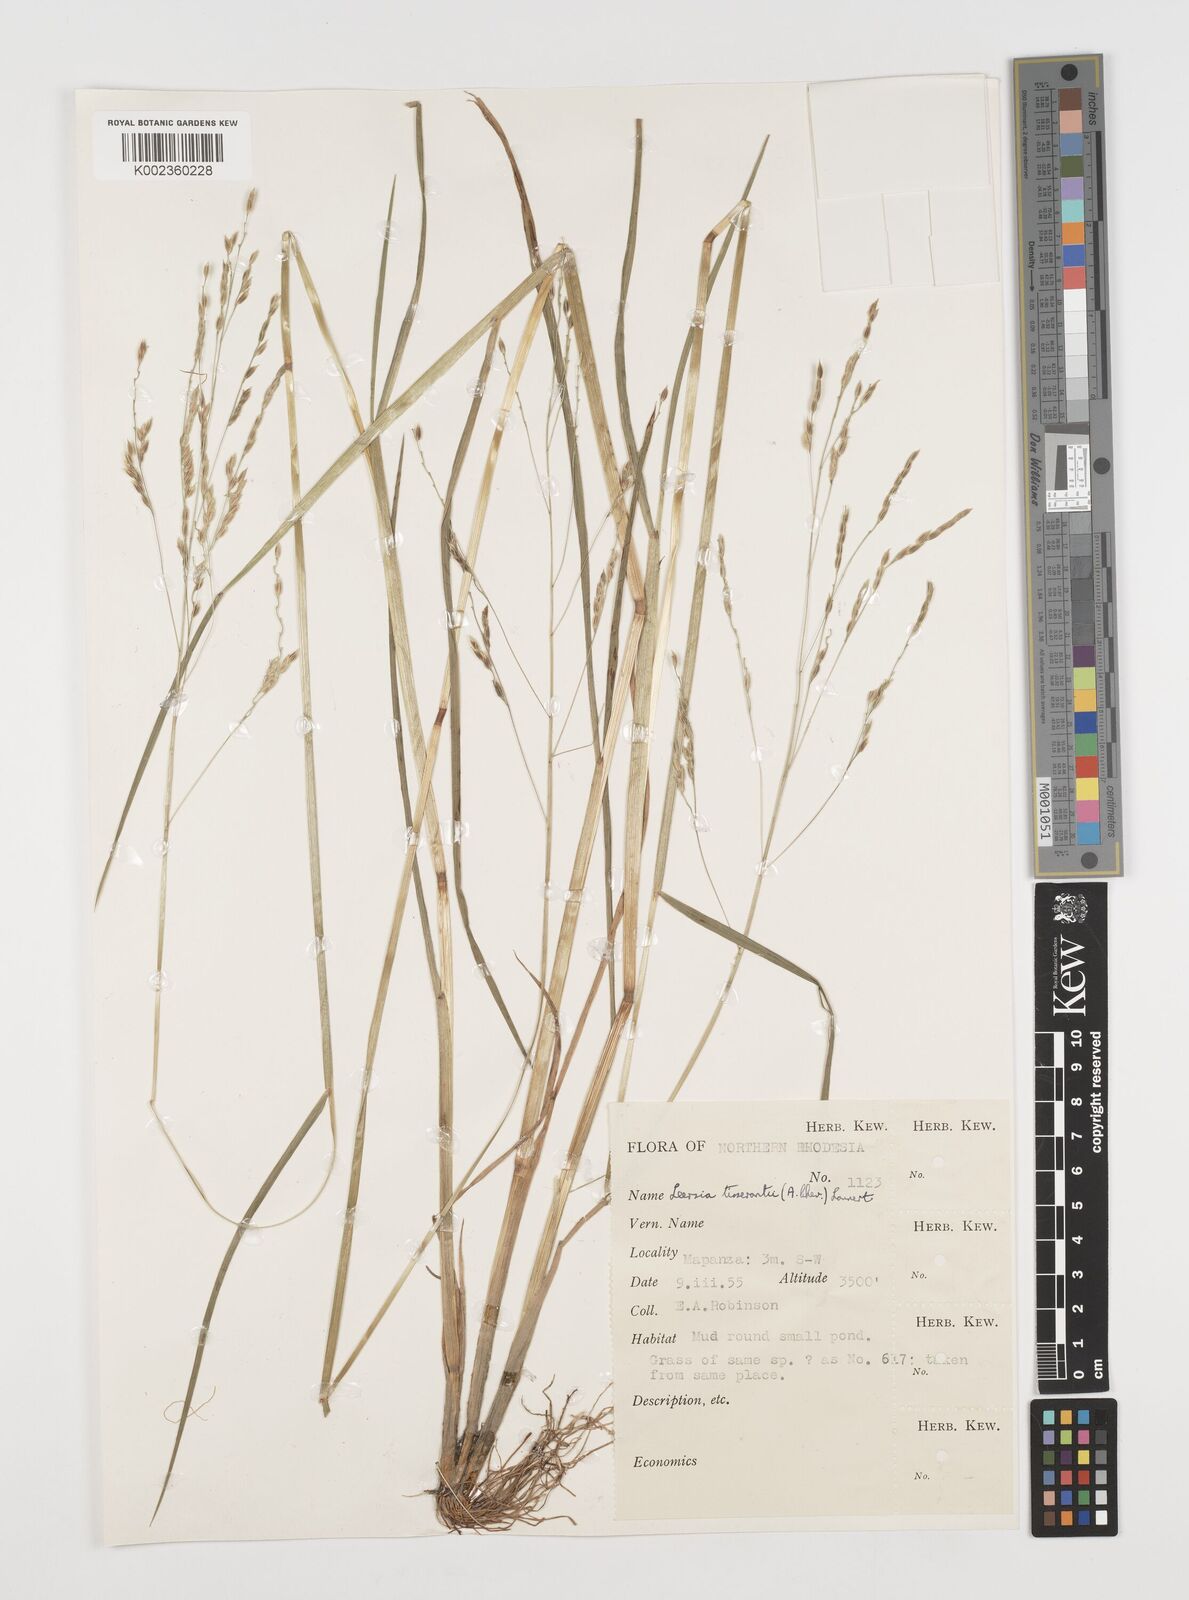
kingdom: Plantae
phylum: Tracheophyta
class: Liliopsida
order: Poales
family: Poaceae
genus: Leersia
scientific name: Leersia tisserantii
